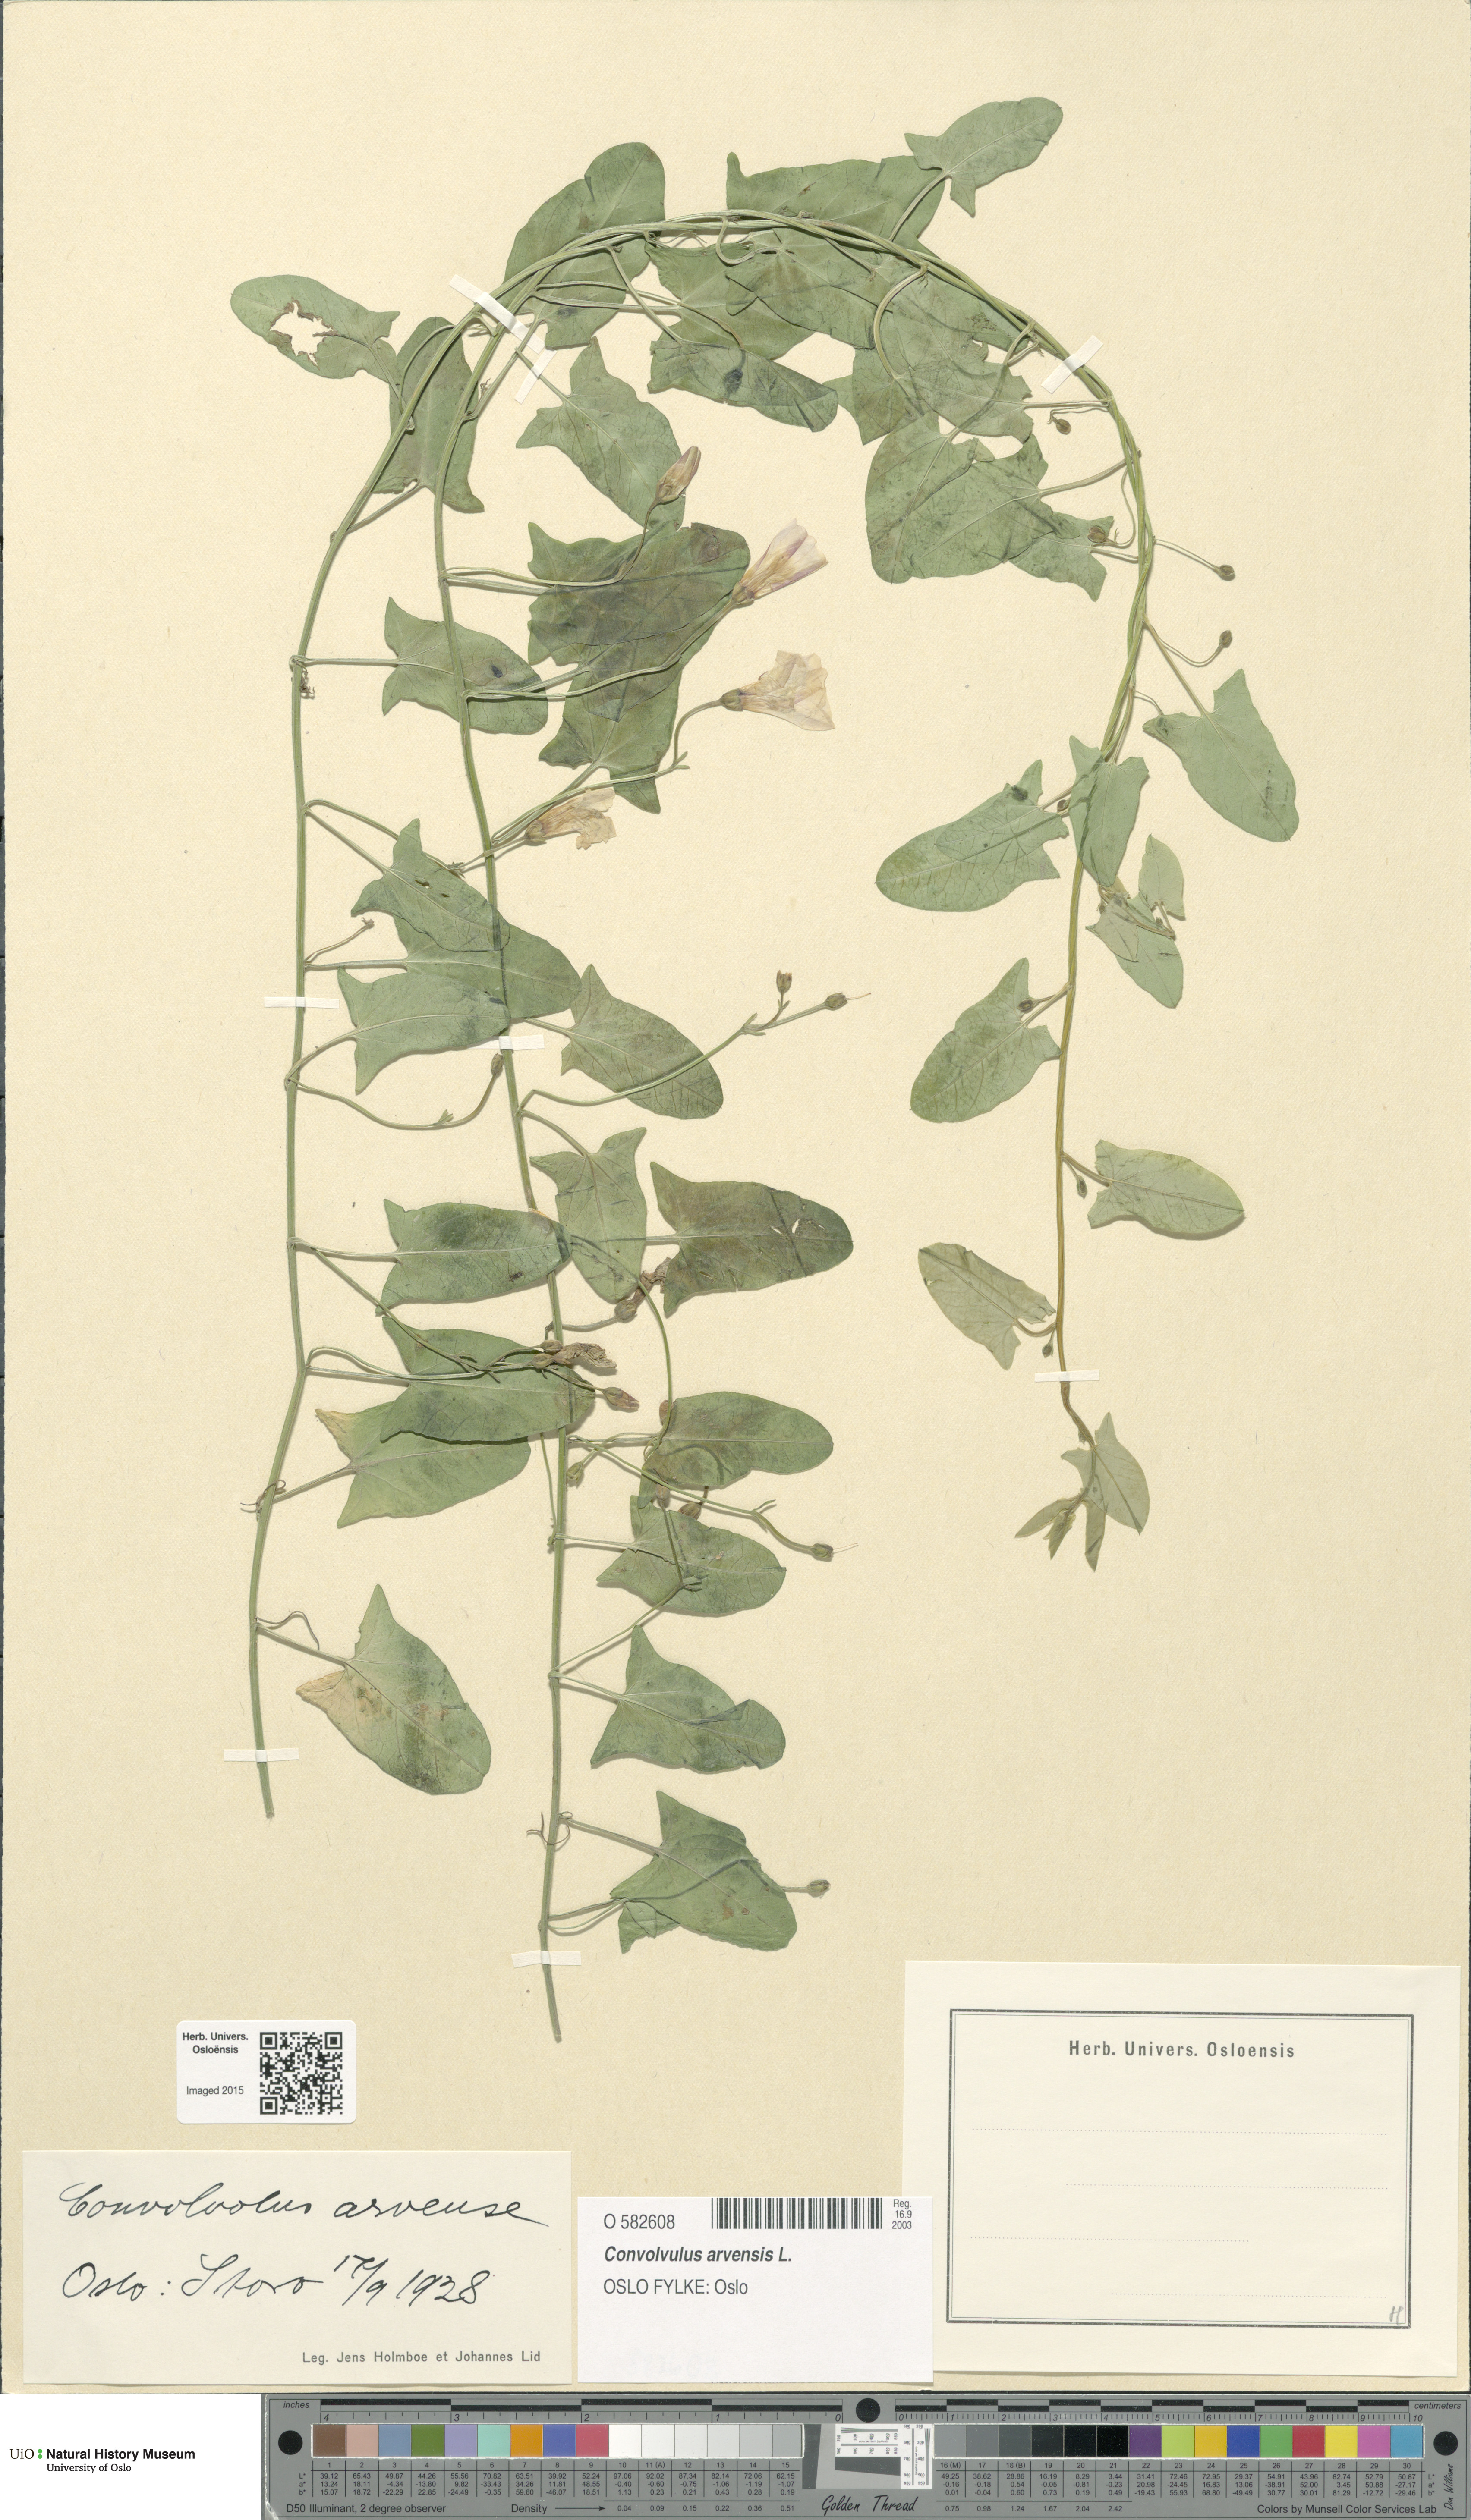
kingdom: Plantae
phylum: Tracheophyta
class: Magnoliopsida
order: Solanales
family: Convolvulaceae
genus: Convolvulus
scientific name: Convolvulus arvensis
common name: Field bindweed
